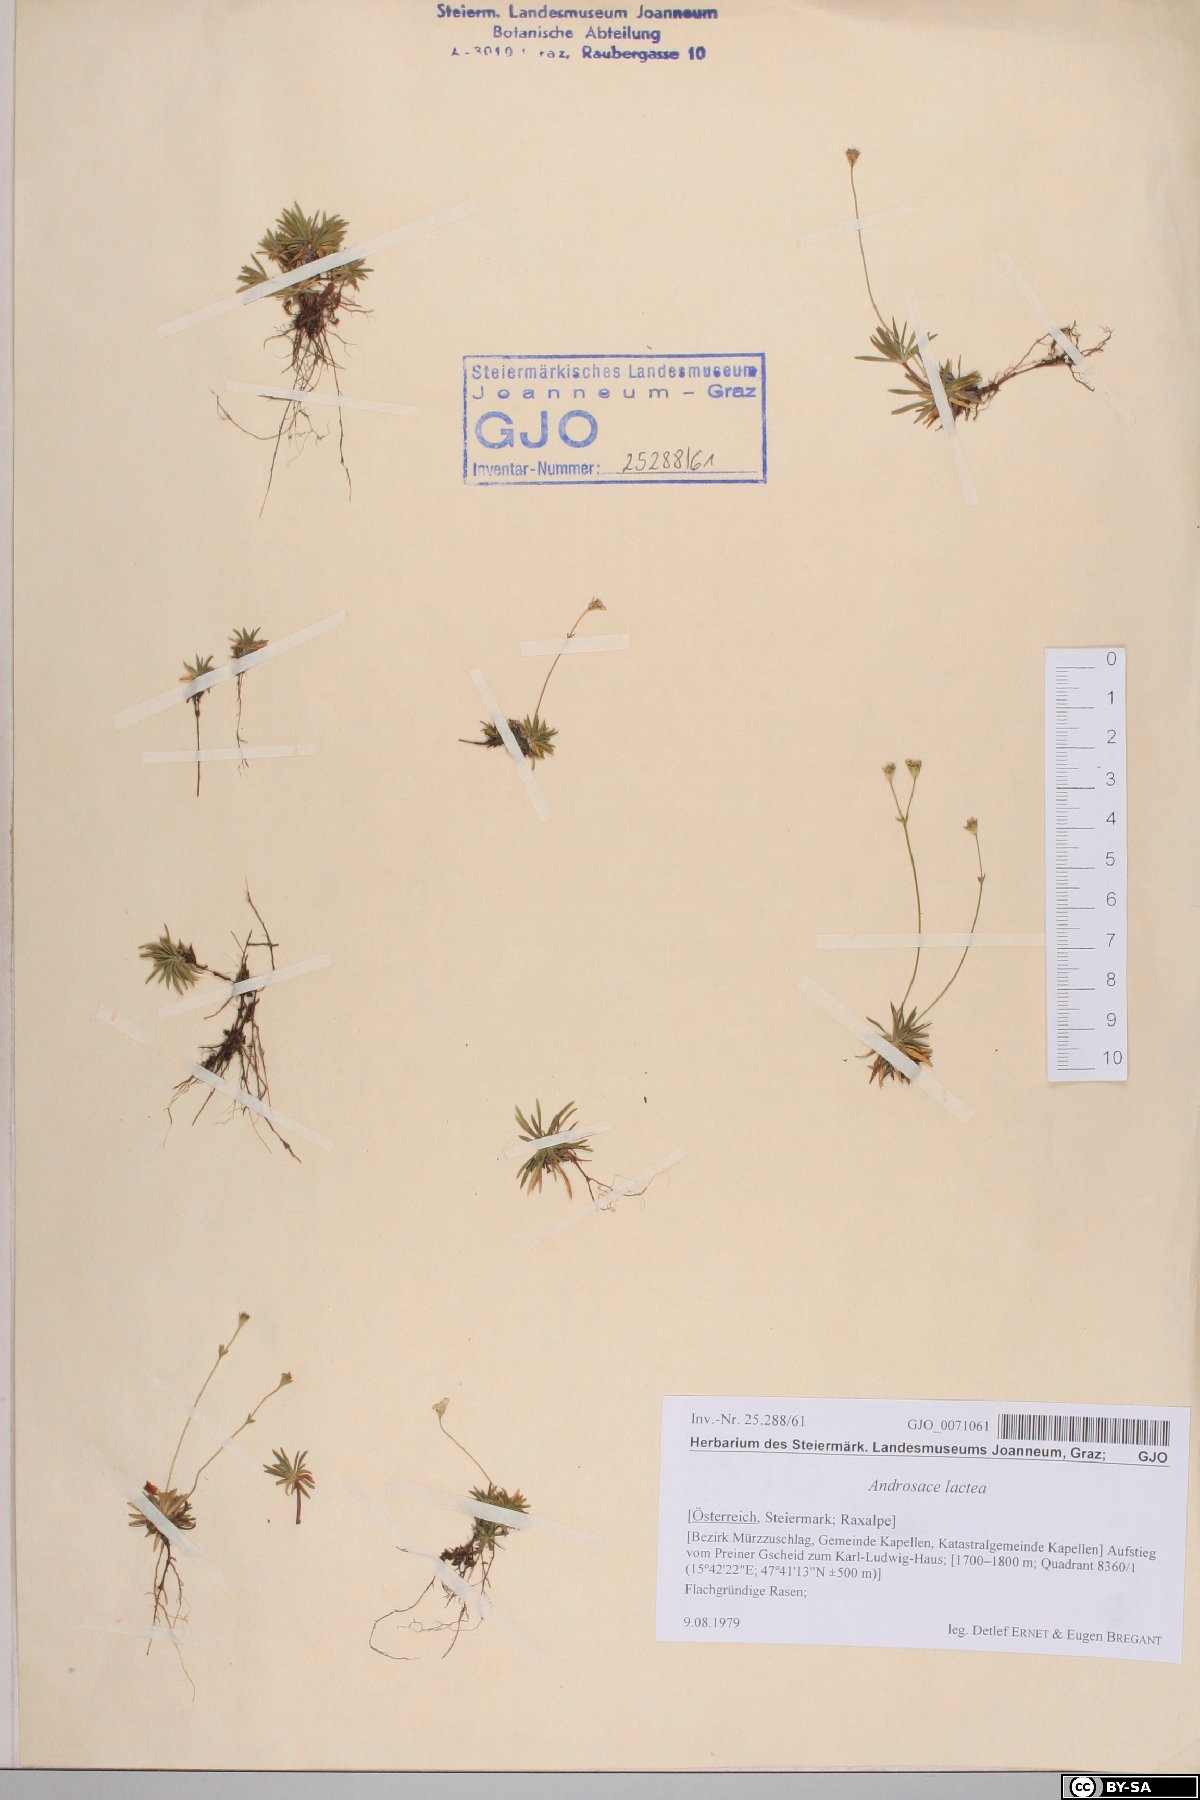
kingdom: Plantae
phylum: Tracheophyta
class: Magnoliopsida
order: Ericales
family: Primulaceae
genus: Androsace
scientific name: Androsace lactea
